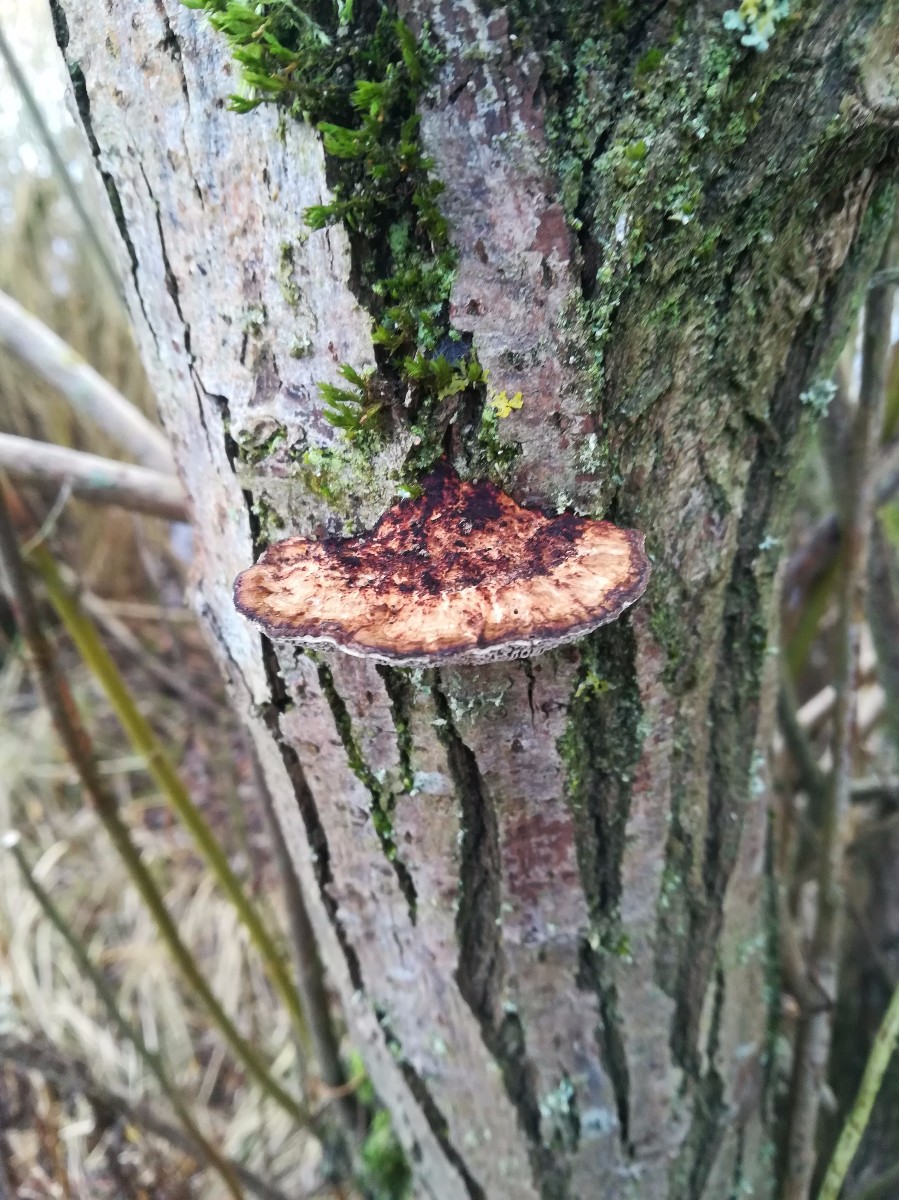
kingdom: Fungi
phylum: Basidiomycota
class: Agaricomycetes
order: Polyporales
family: Polyporaceae
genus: Daedaleopsis
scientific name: Daedaleopsis confragosa
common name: rødmende læderporesvamp
